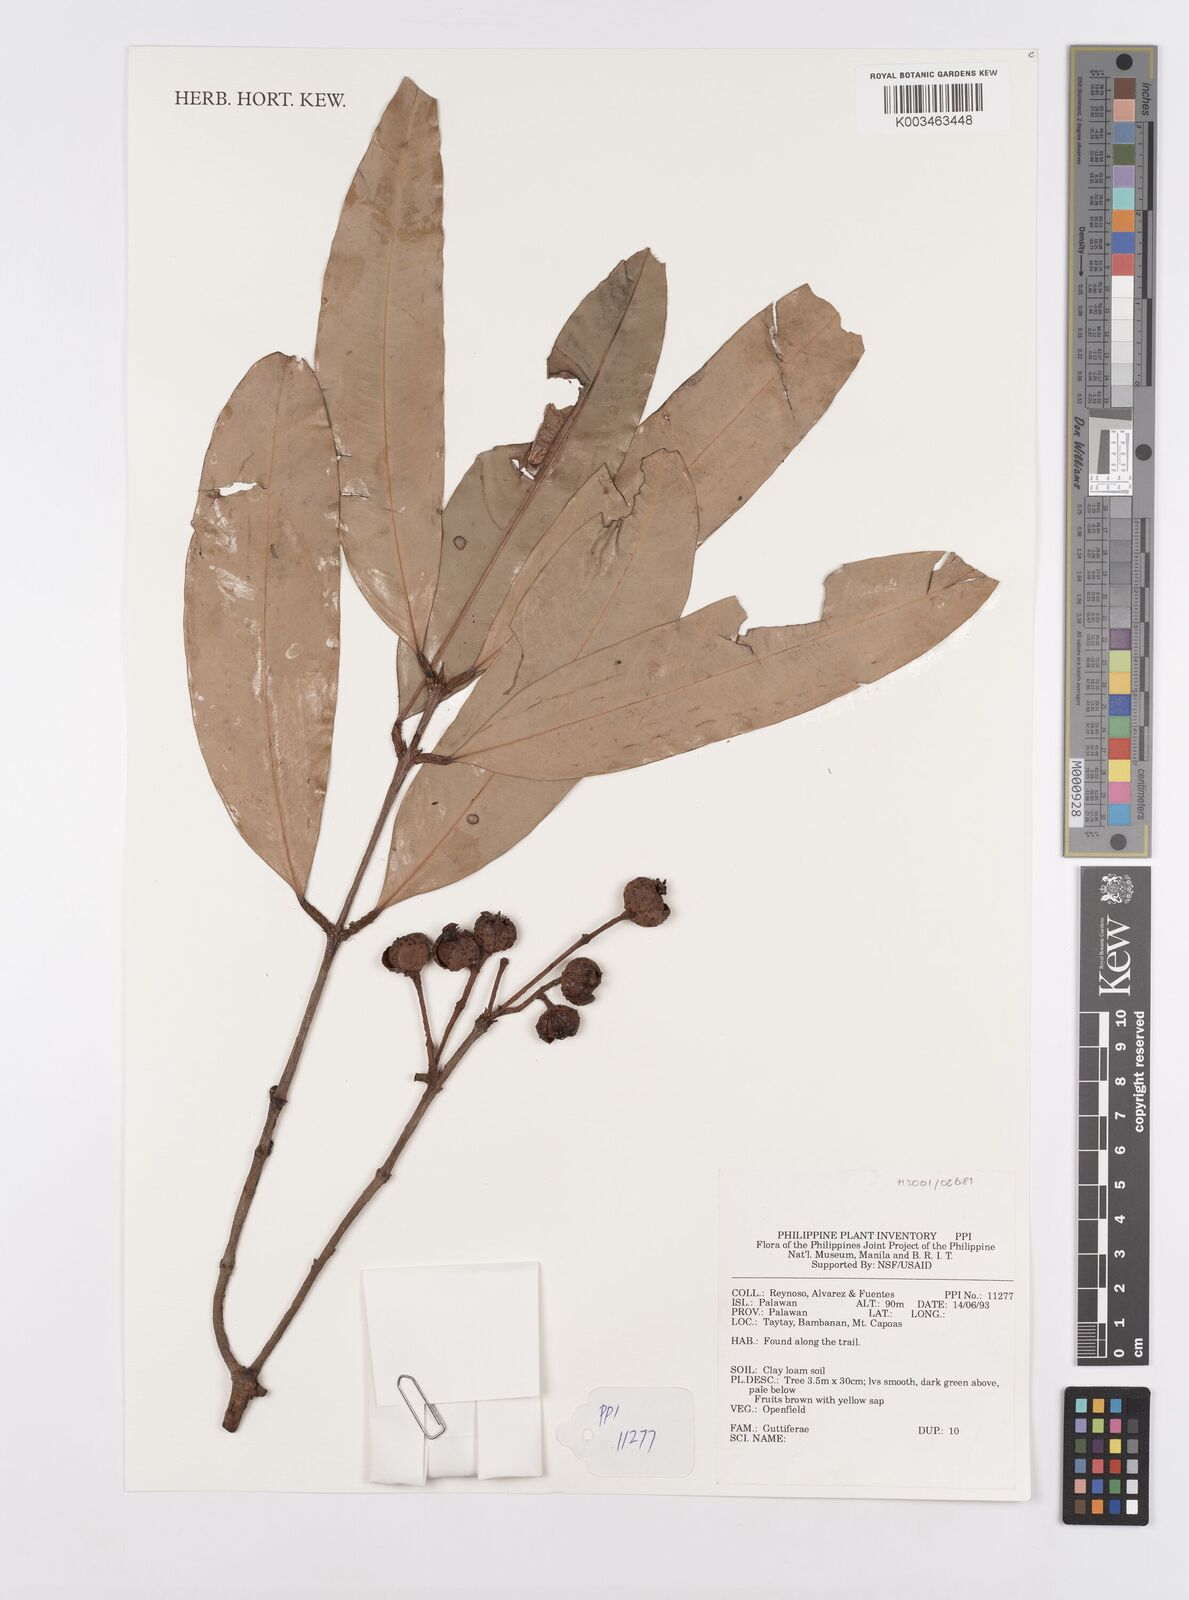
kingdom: Plantae
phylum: Tracheophyta
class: Magnoliopsida
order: Malpighiales
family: Calophyllaceae
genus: Kayea
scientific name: Kayea
